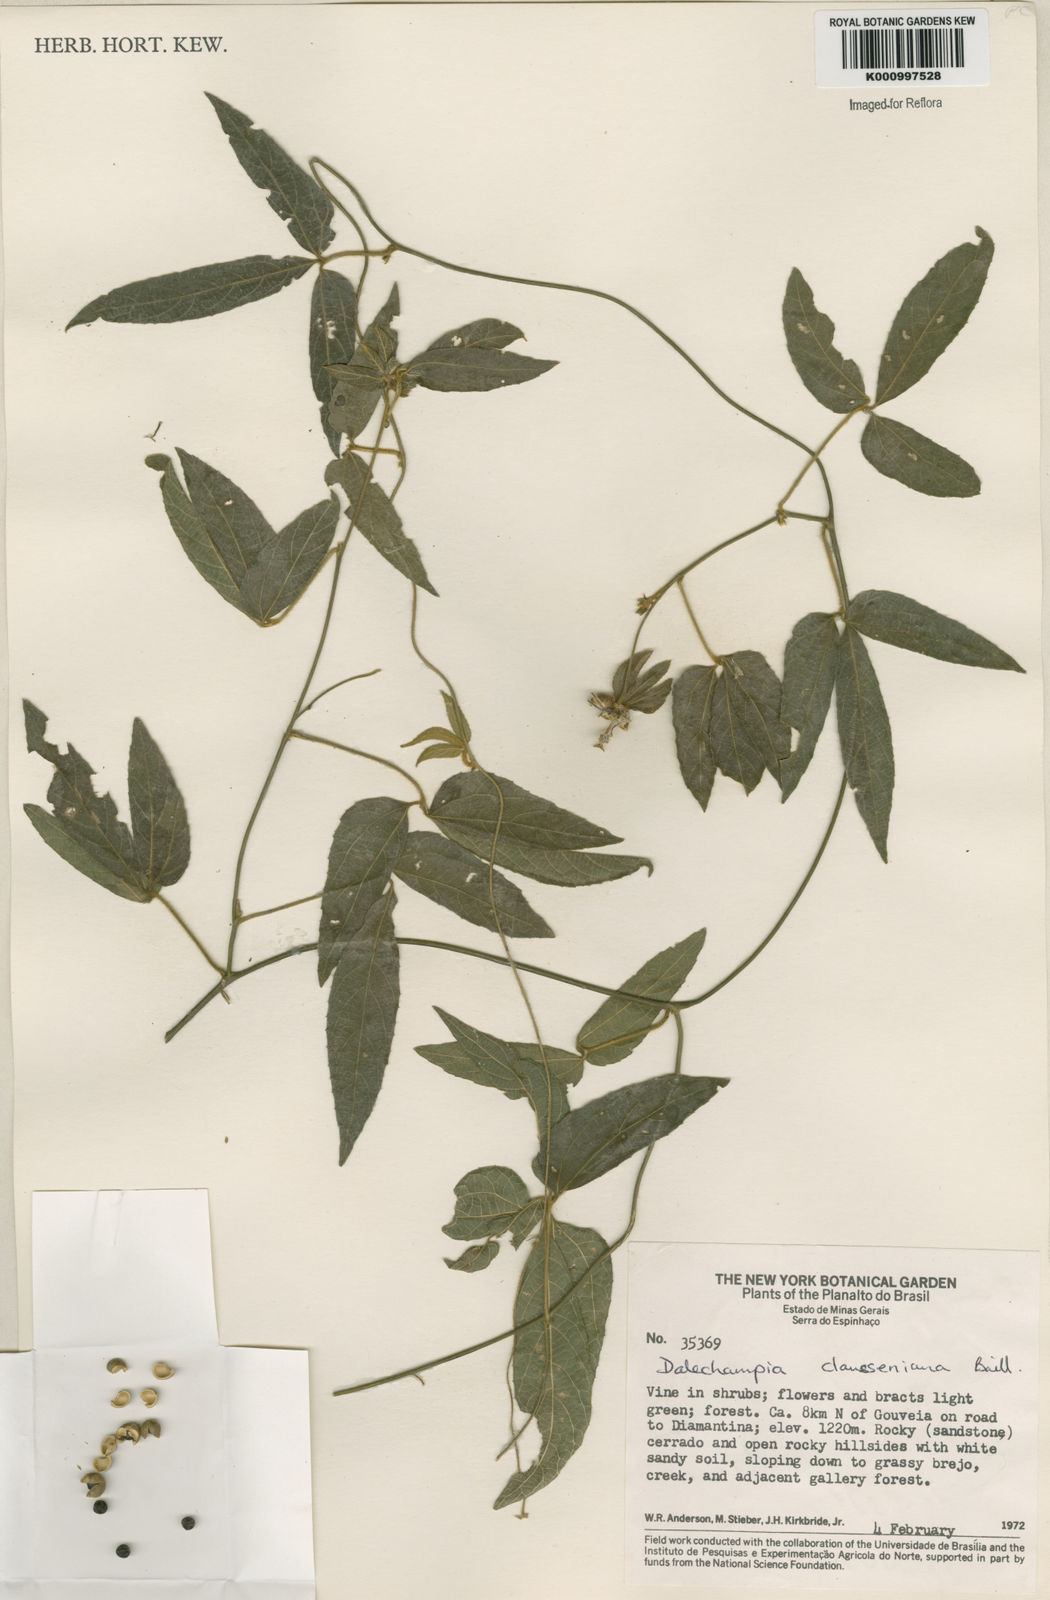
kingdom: Plantae
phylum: Tracheophyta
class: Magnoliopsida
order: Malpighiales
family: Euphorbiaceae
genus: Dalechampia
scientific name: Dalechampia clausseniana
